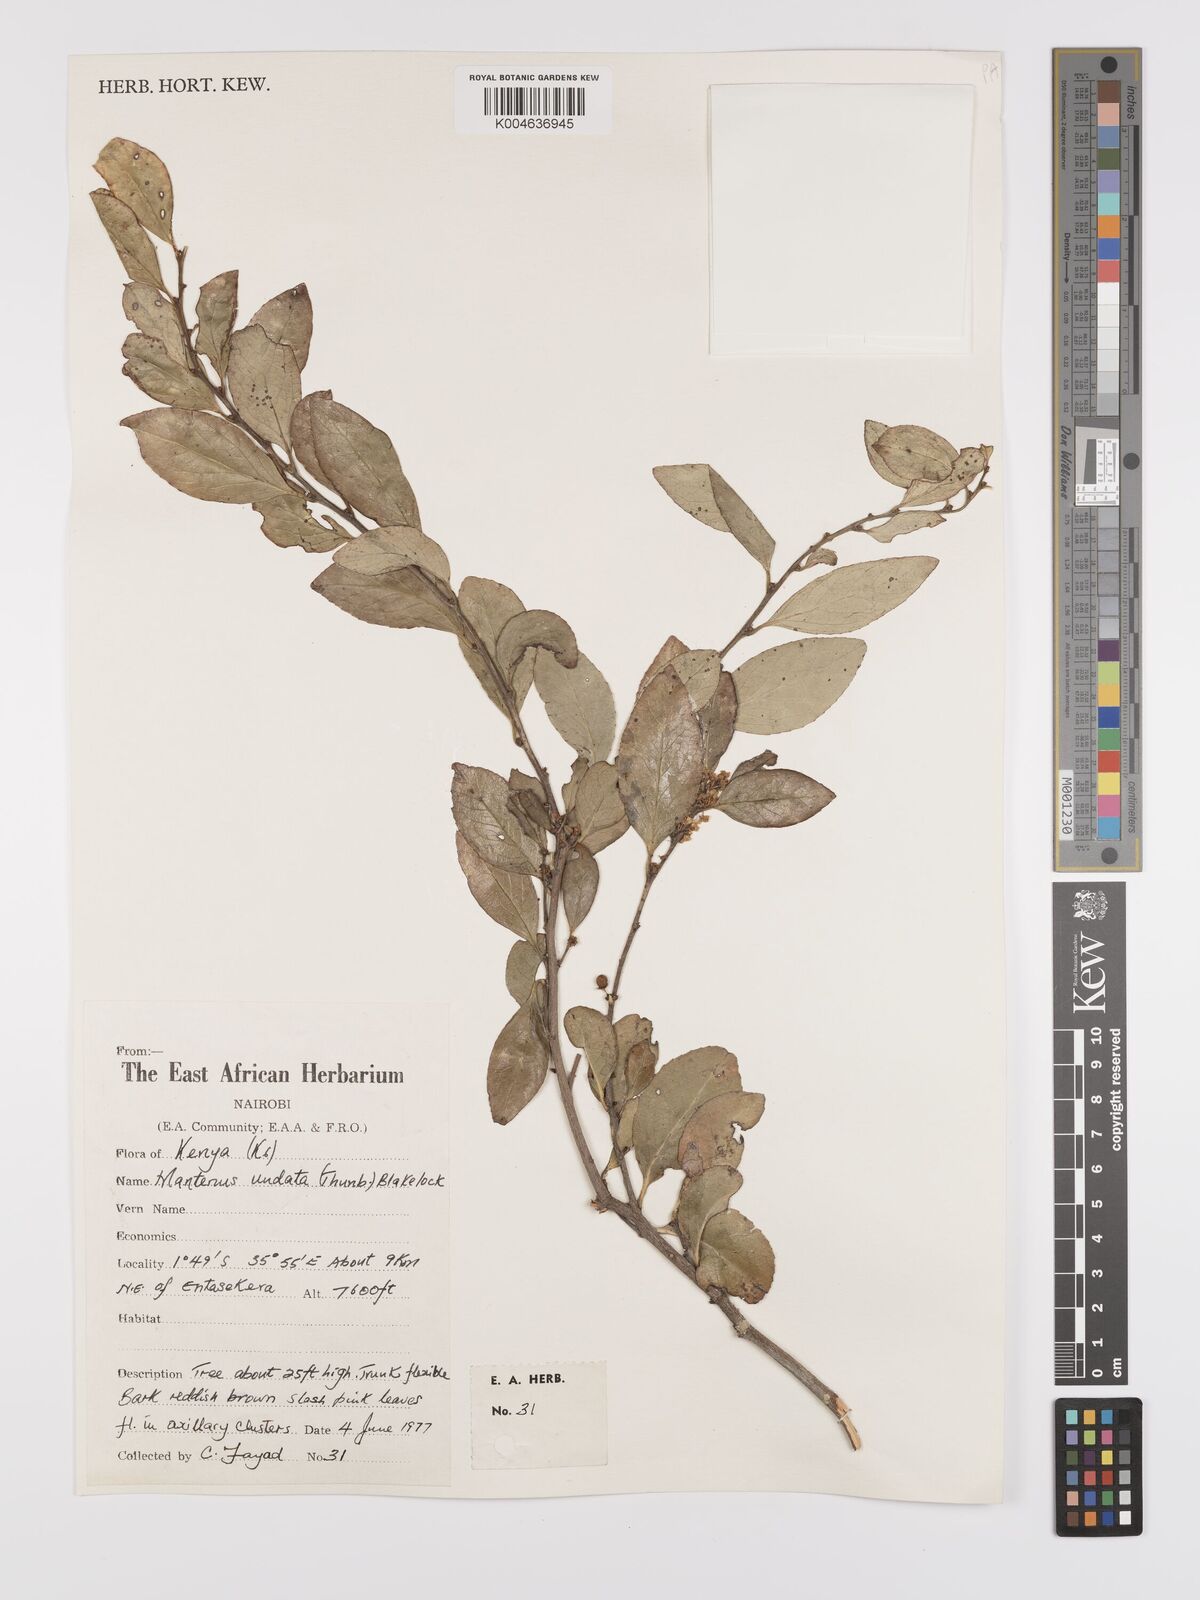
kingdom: Plantae
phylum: Tracheophyta
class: Magnoliopsida
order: Celastrales
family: Celastraceae
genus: Gymnosporia
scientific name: Gymnosporia undata
